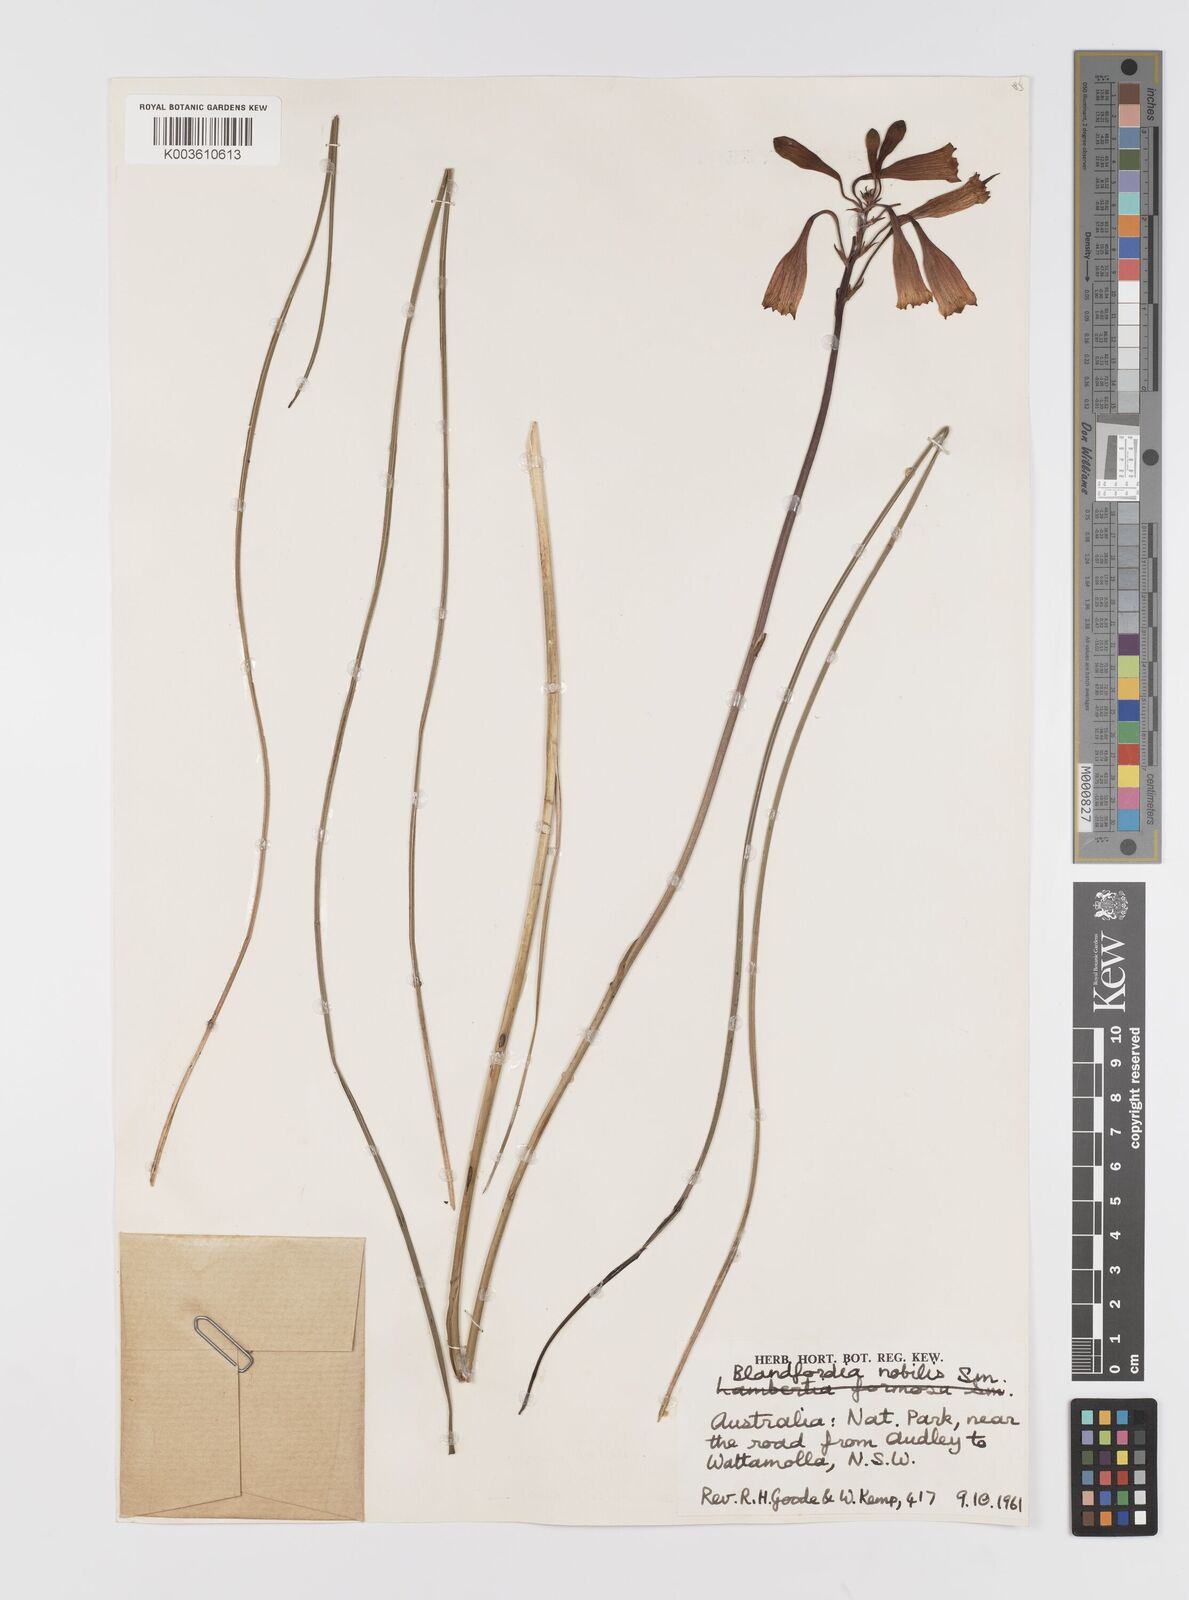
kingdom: Plantae
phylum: Tracheophyta
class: Liliopsida
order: Asparagales
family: Blandfordiaceae
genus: Blandfordia
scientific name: Blandfordia nobilis
